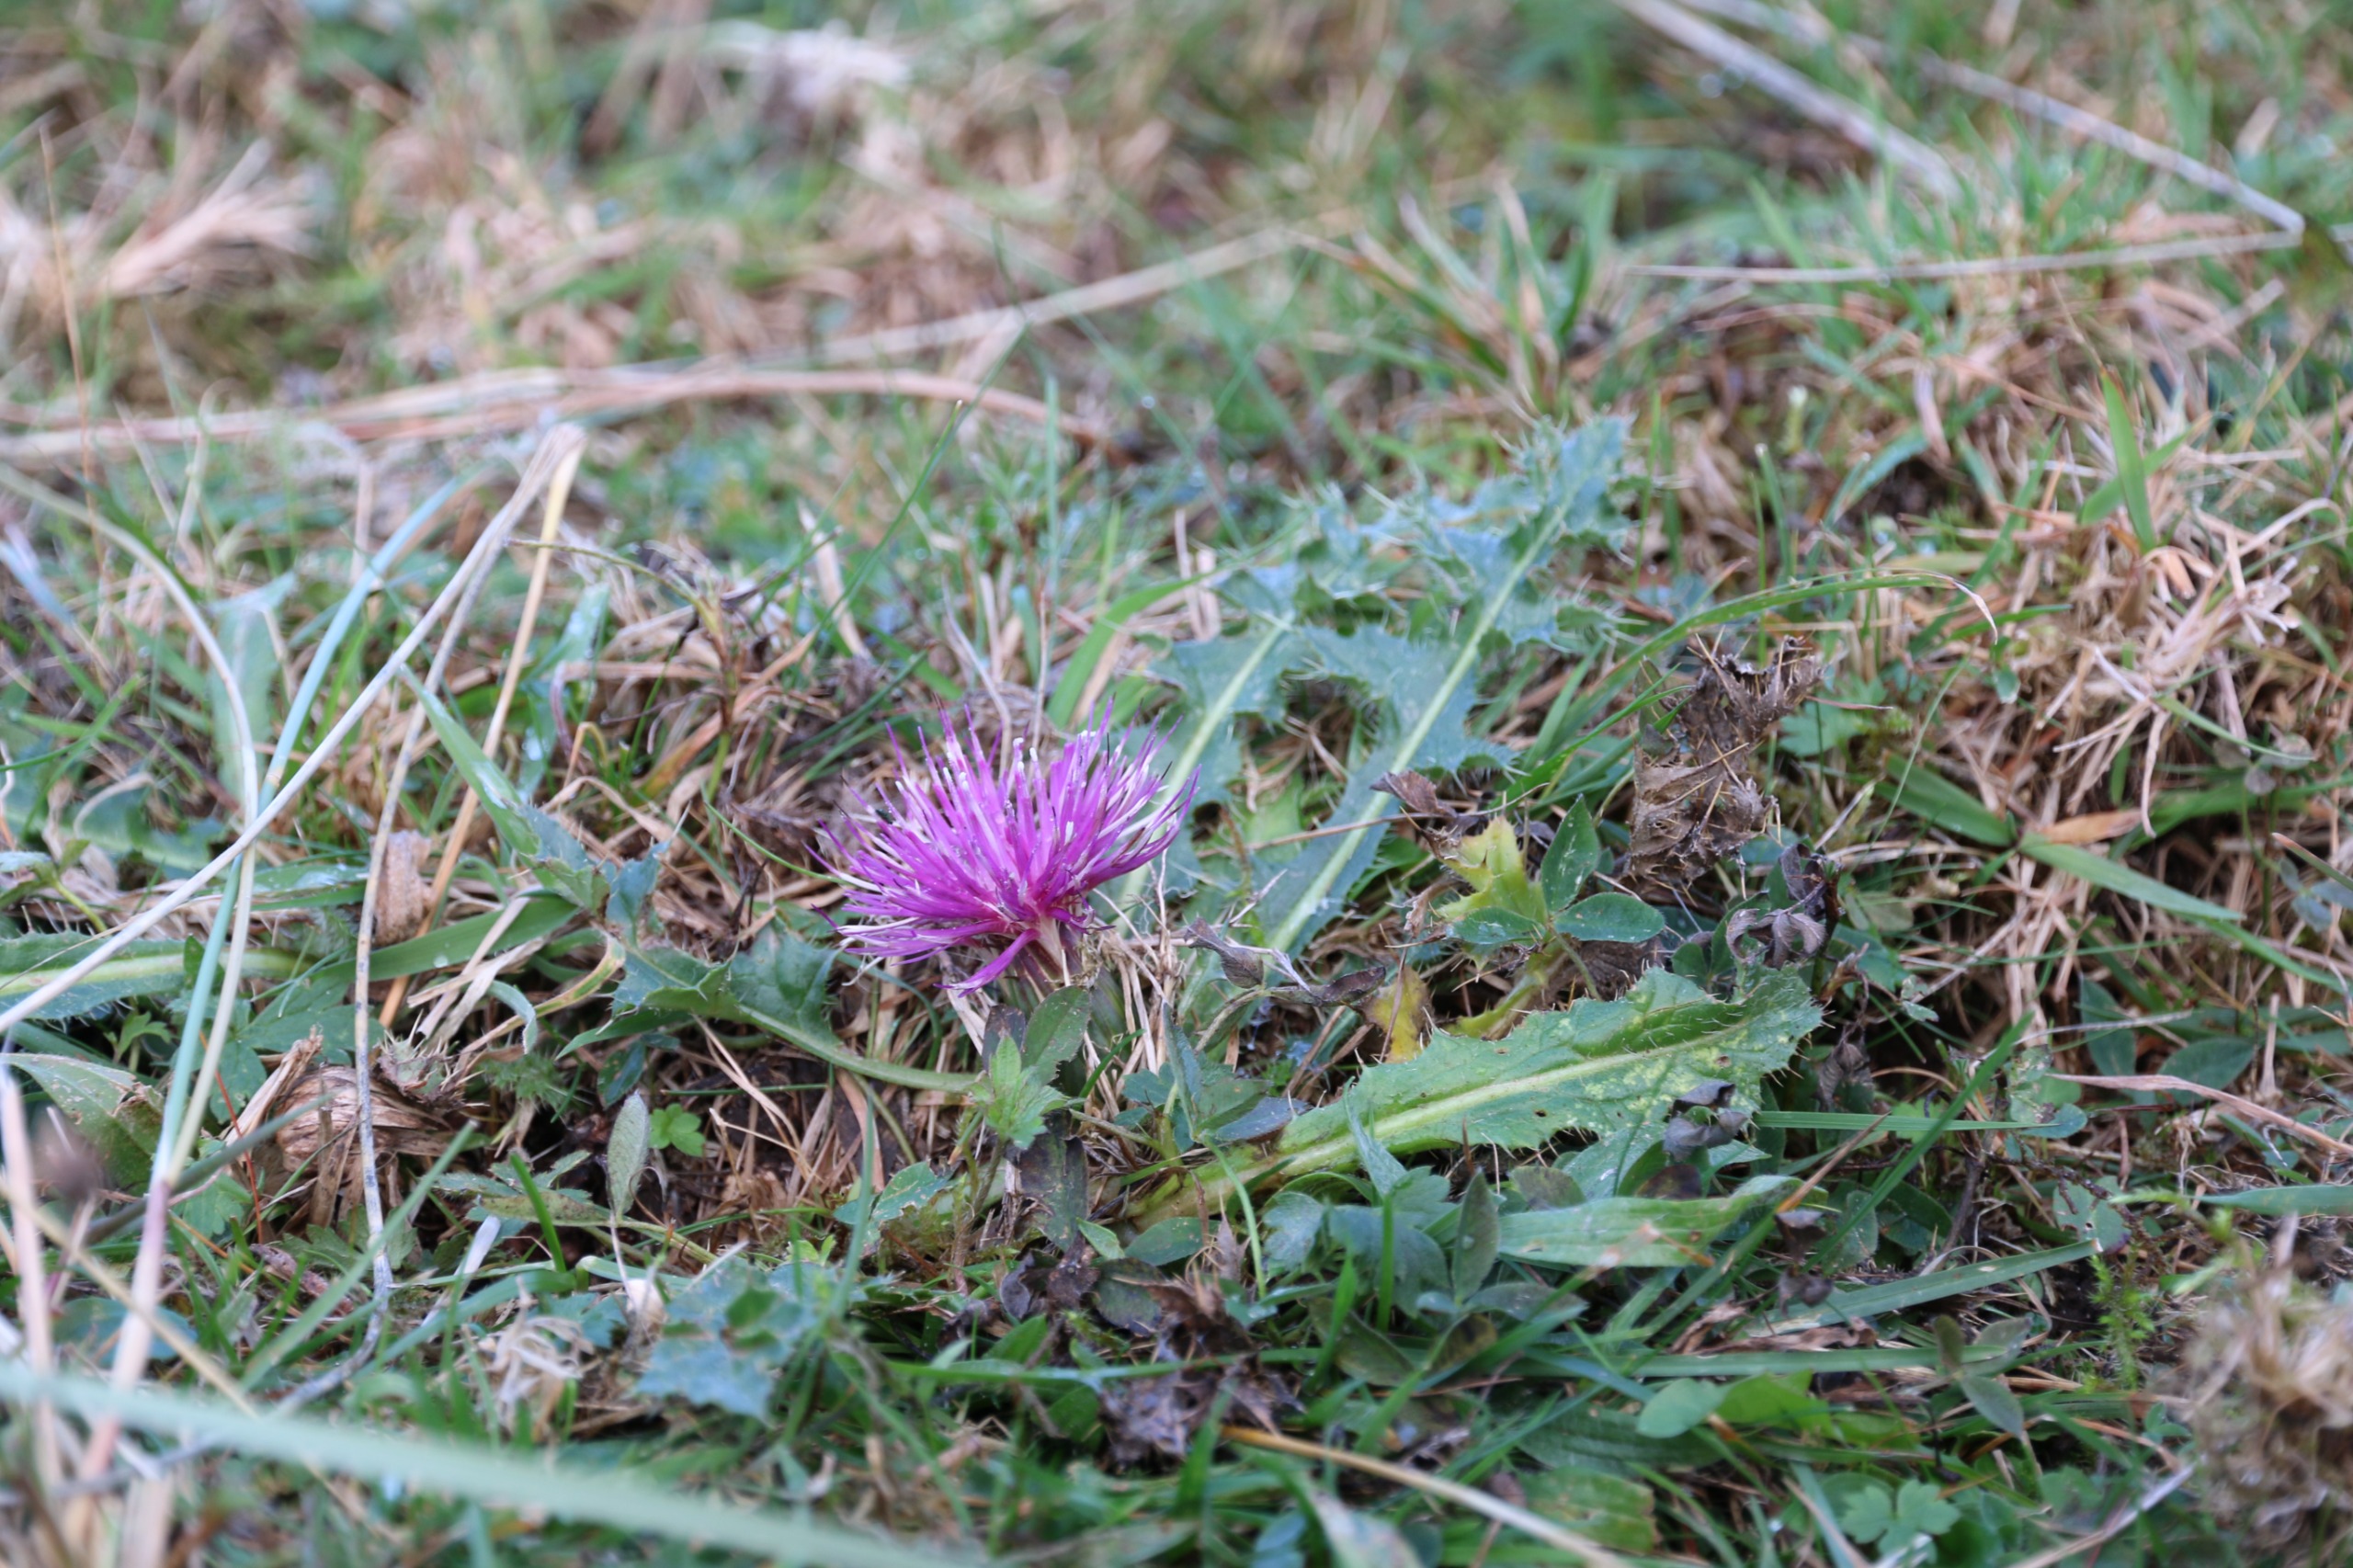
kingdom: Plantae
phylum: Tracheophyta
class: Magnoliopsida
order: Asterales
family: Asteraceae
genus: Cirsium
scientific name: Cirsium acaule
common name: Lav tidsel
